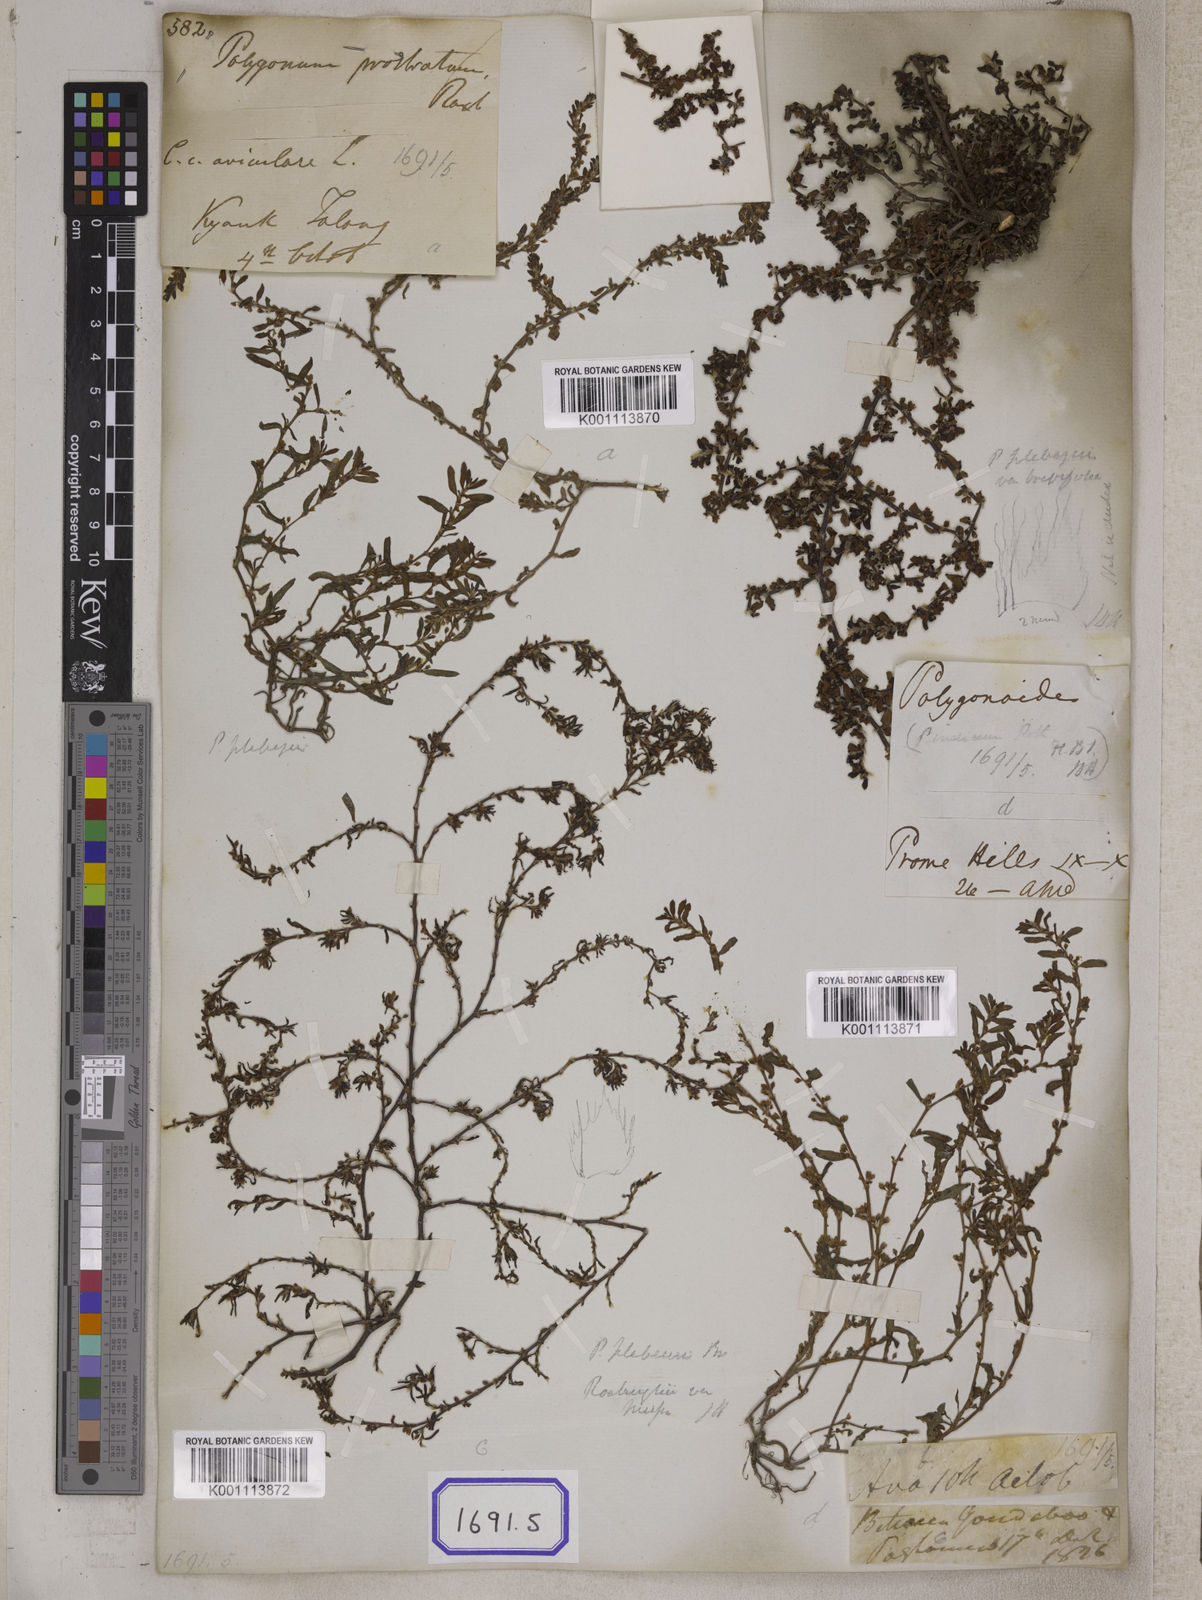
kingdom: Plantae
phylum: Tracheophyta
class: Magnoliopsida
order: Caryophyllales
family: Polygonaceae
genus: Polygonum
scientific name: Polygonum plebeium
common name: Common knotweed
